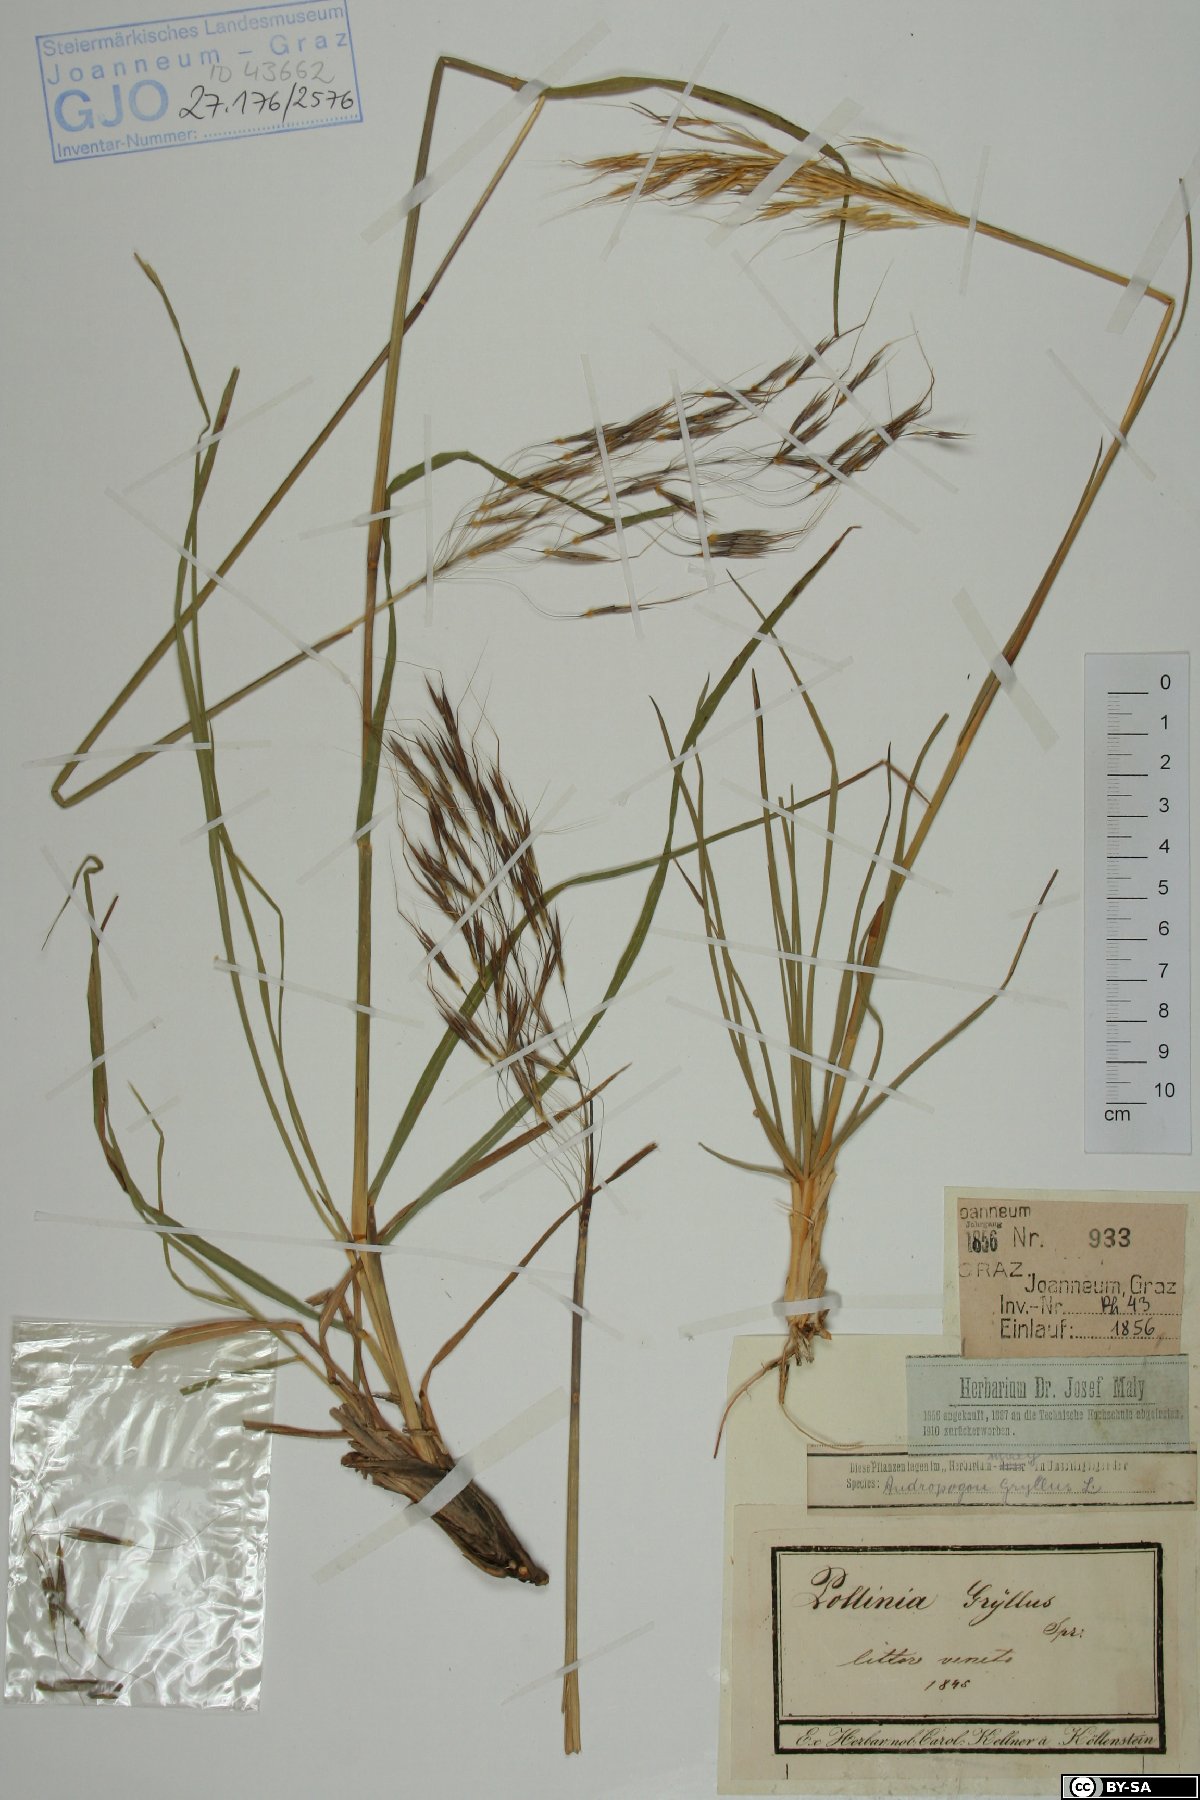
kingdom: Plantae
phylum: Tracheophyta
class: Liliopsida
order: Poales
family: Poaceae
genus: Chrysopogon
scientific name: Chrysopogon gryllus
